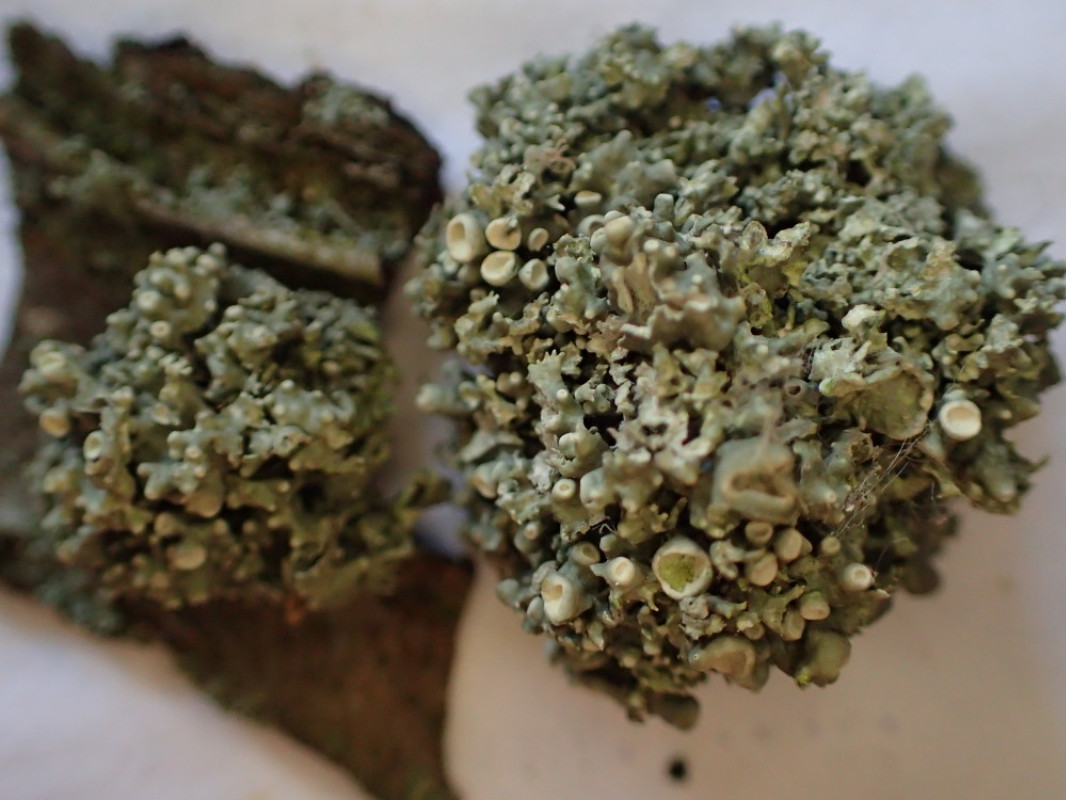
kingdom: Fungi
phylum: Ascomycota
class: Lecanoromycetes
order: Lecanorales
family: Ramalinaceae
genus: Ramalina
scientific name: Ramalina fastigiata
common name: tue-grenlav
